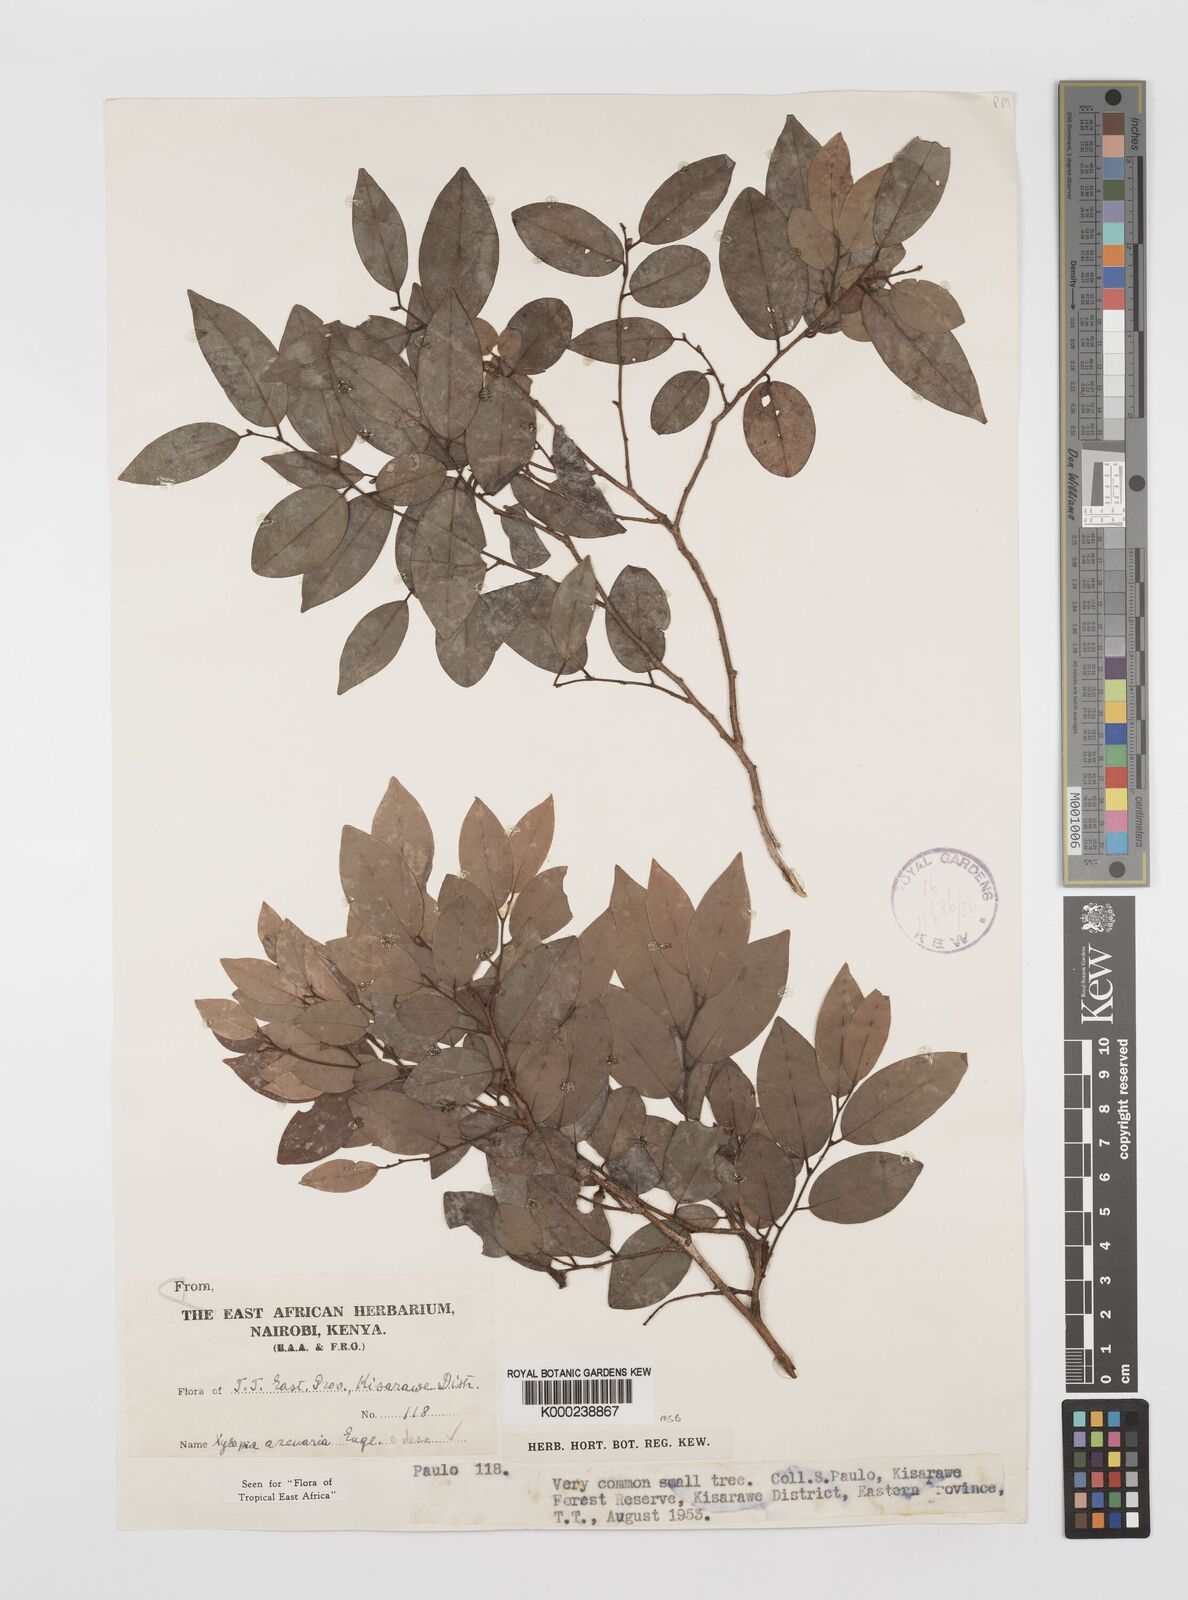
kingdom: Plantae
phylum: Tracheophyta
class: Magnoliopsida
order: Magnoliales
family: Annonaceae
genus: Xylopia
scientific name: Xylopia arenaria
